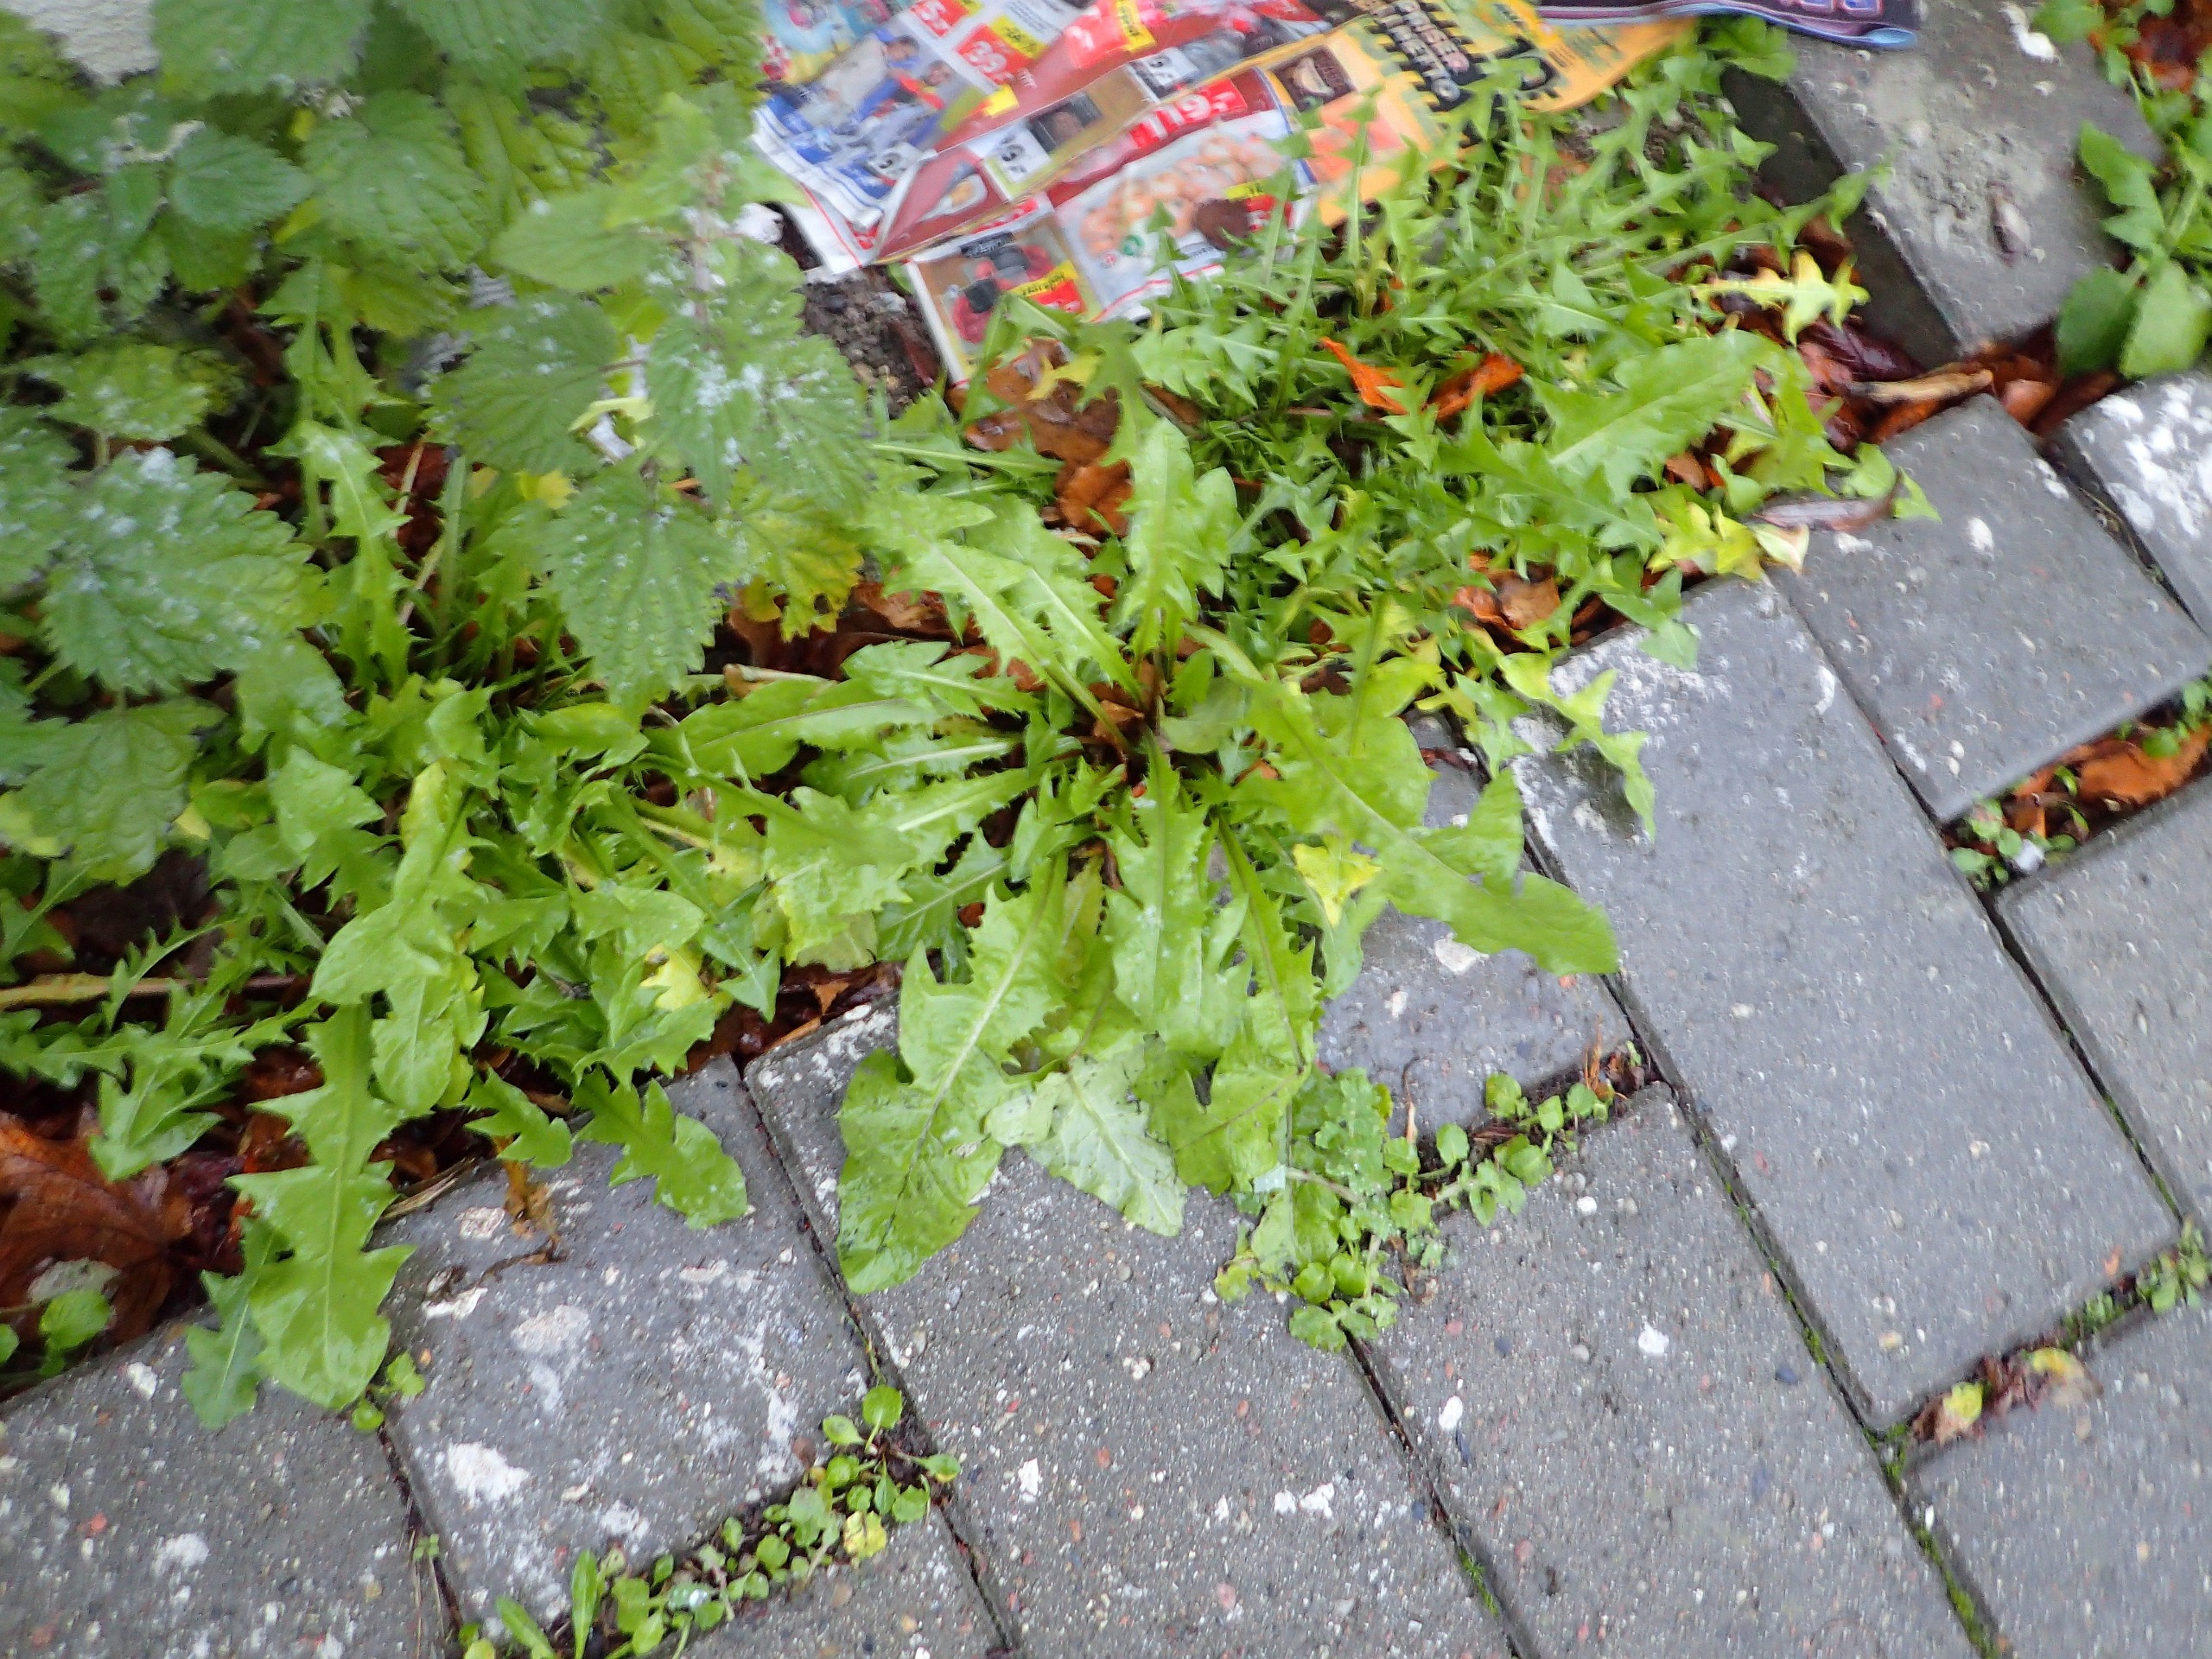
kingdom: Plantae
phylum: Tracheophyta
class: Magnoliopsida
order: Asterales
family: Asteraceae
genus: Taraxacum
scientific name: Taraxacum
